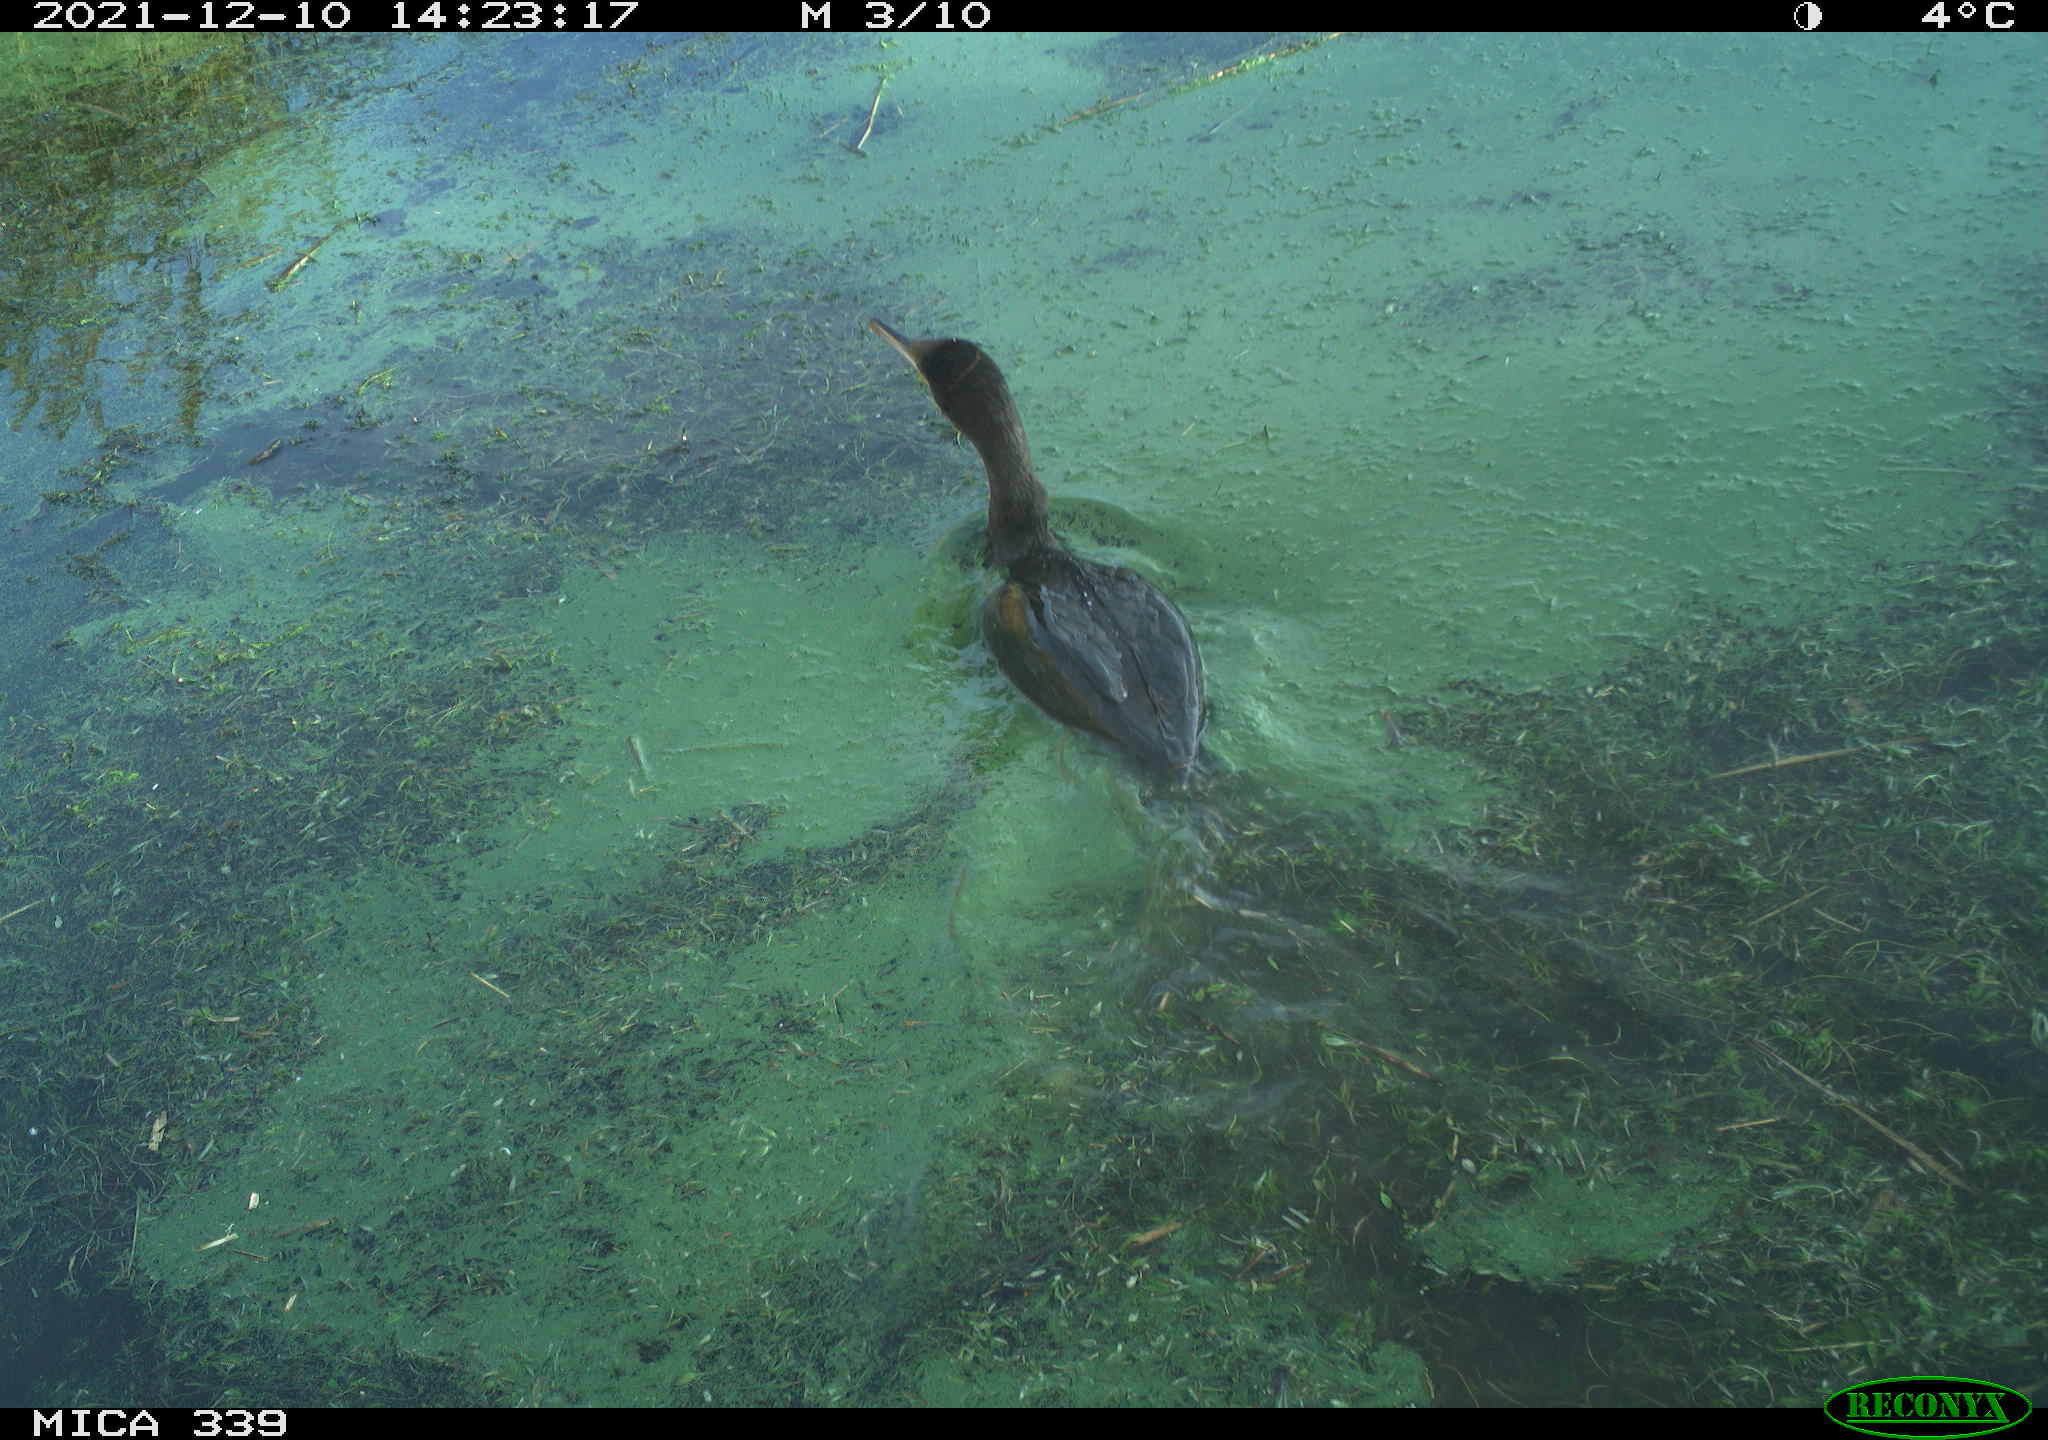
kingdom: Animalia
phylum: Chordata
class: Aves
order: Suliformes
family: Phalacrocoracidae
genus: Phalacrocorax
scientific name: Phalacrocorax carbo
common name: Great cormorant
